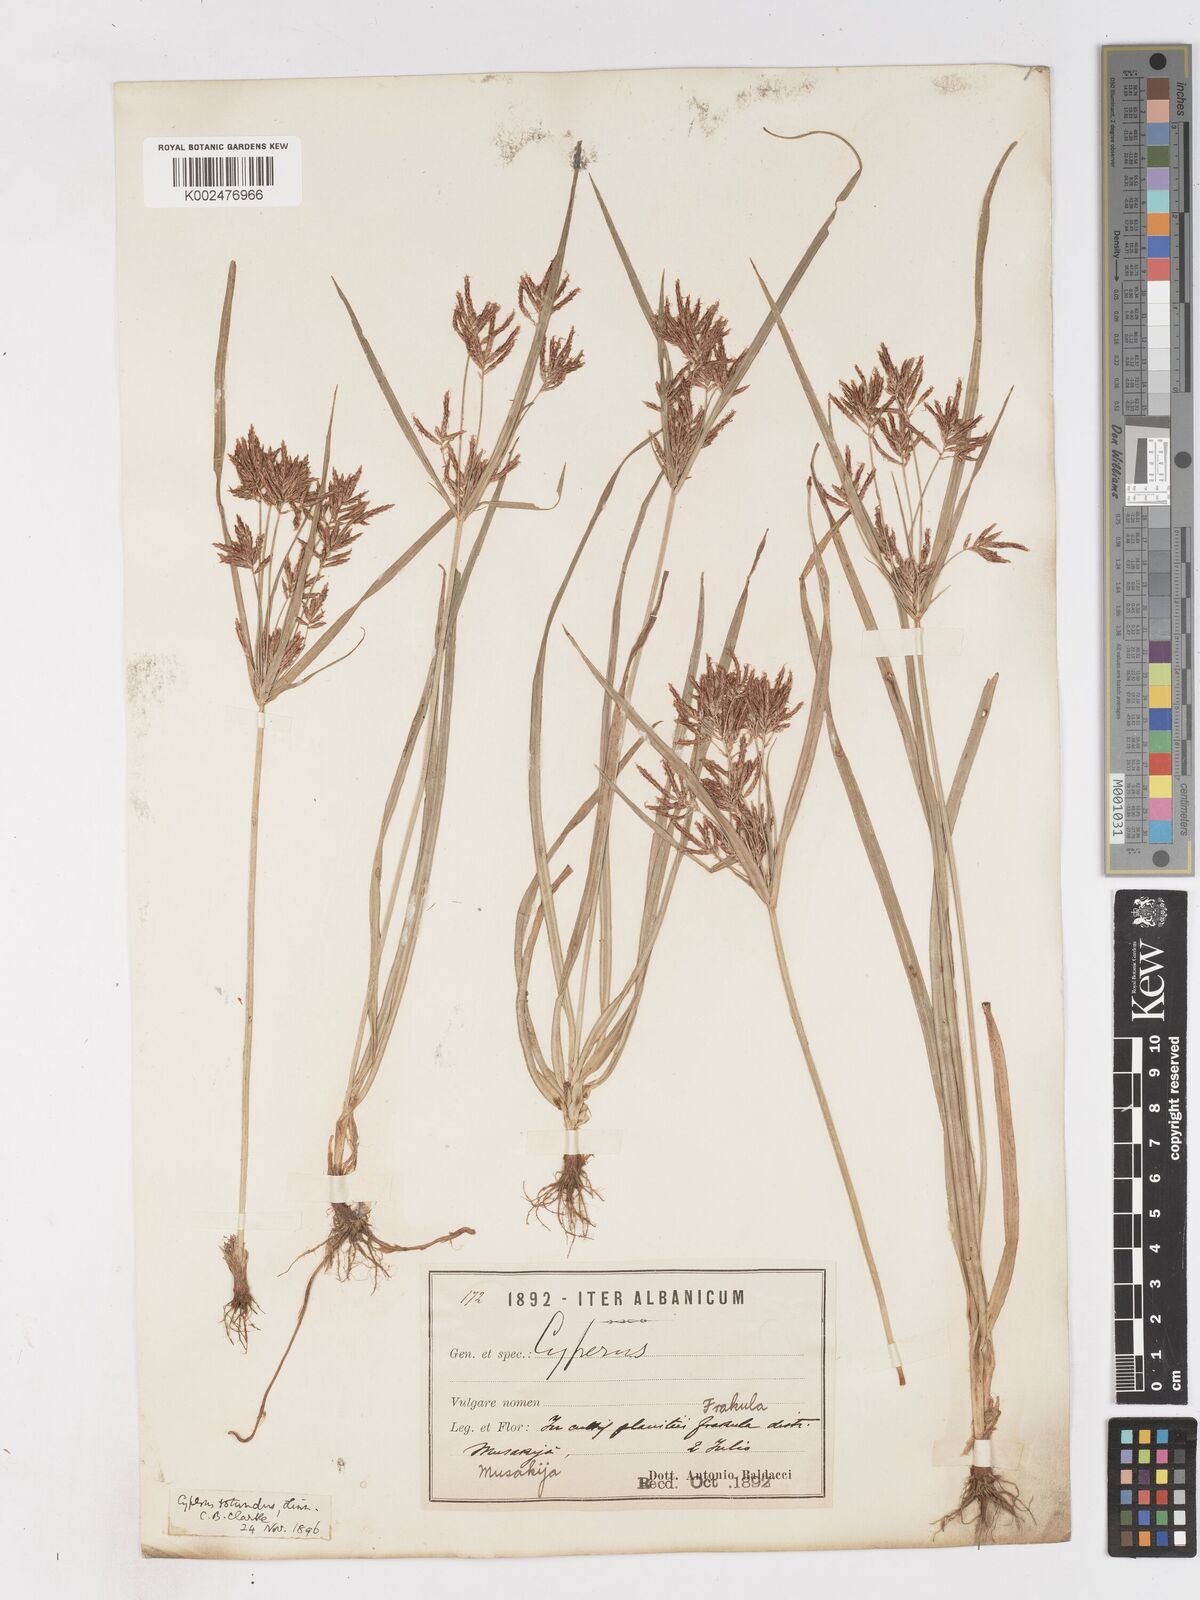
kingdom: Plantae
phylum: Tracheophyta
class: Liliopsida
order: Poales
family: Cyperaceae
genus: Cyperus
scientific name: Cyperus rotundus
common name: Nutgrass
